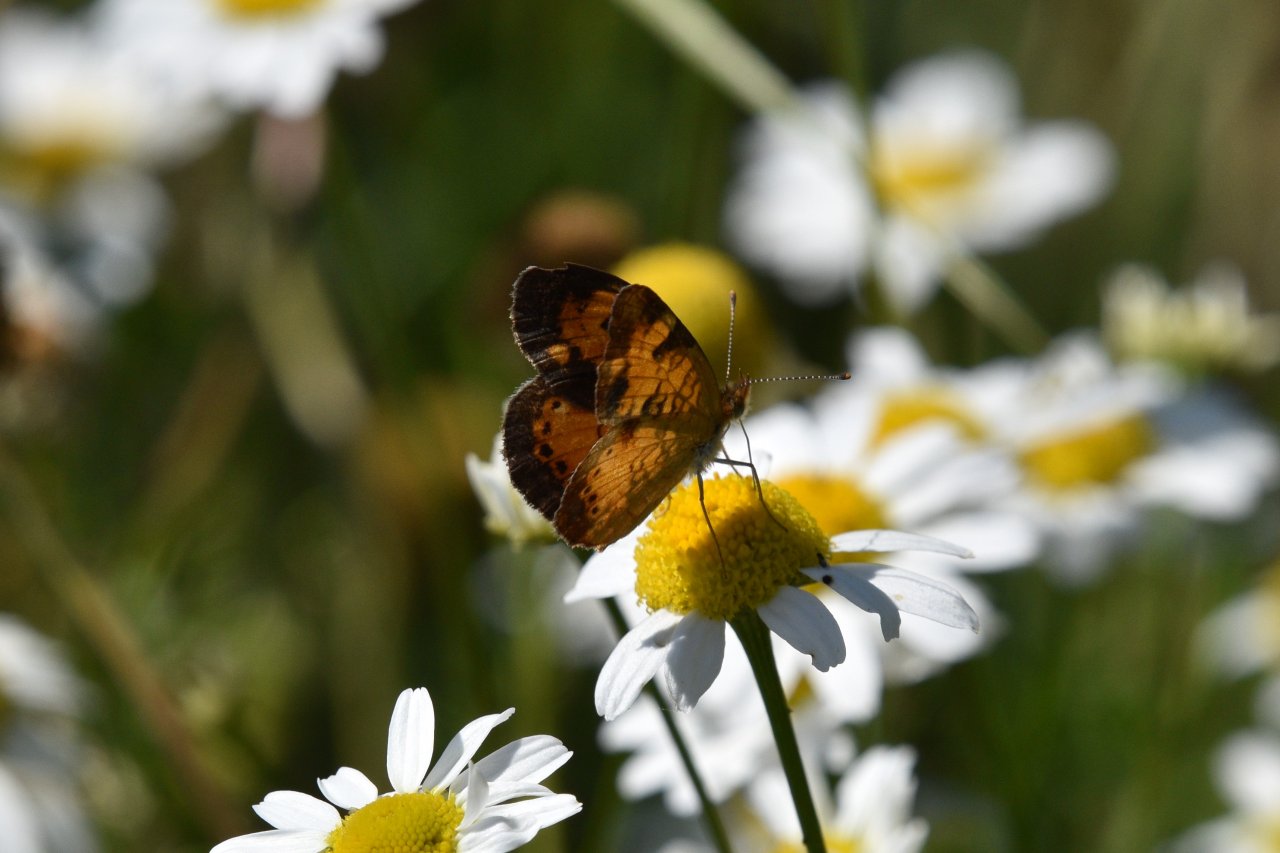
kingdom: Animalia
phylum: Arthropoda
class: Insecta
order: Lepidoptera
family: Nymphalidae
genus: Phyciodes
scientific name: Phyciodes tharos
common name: Northern Crescent
